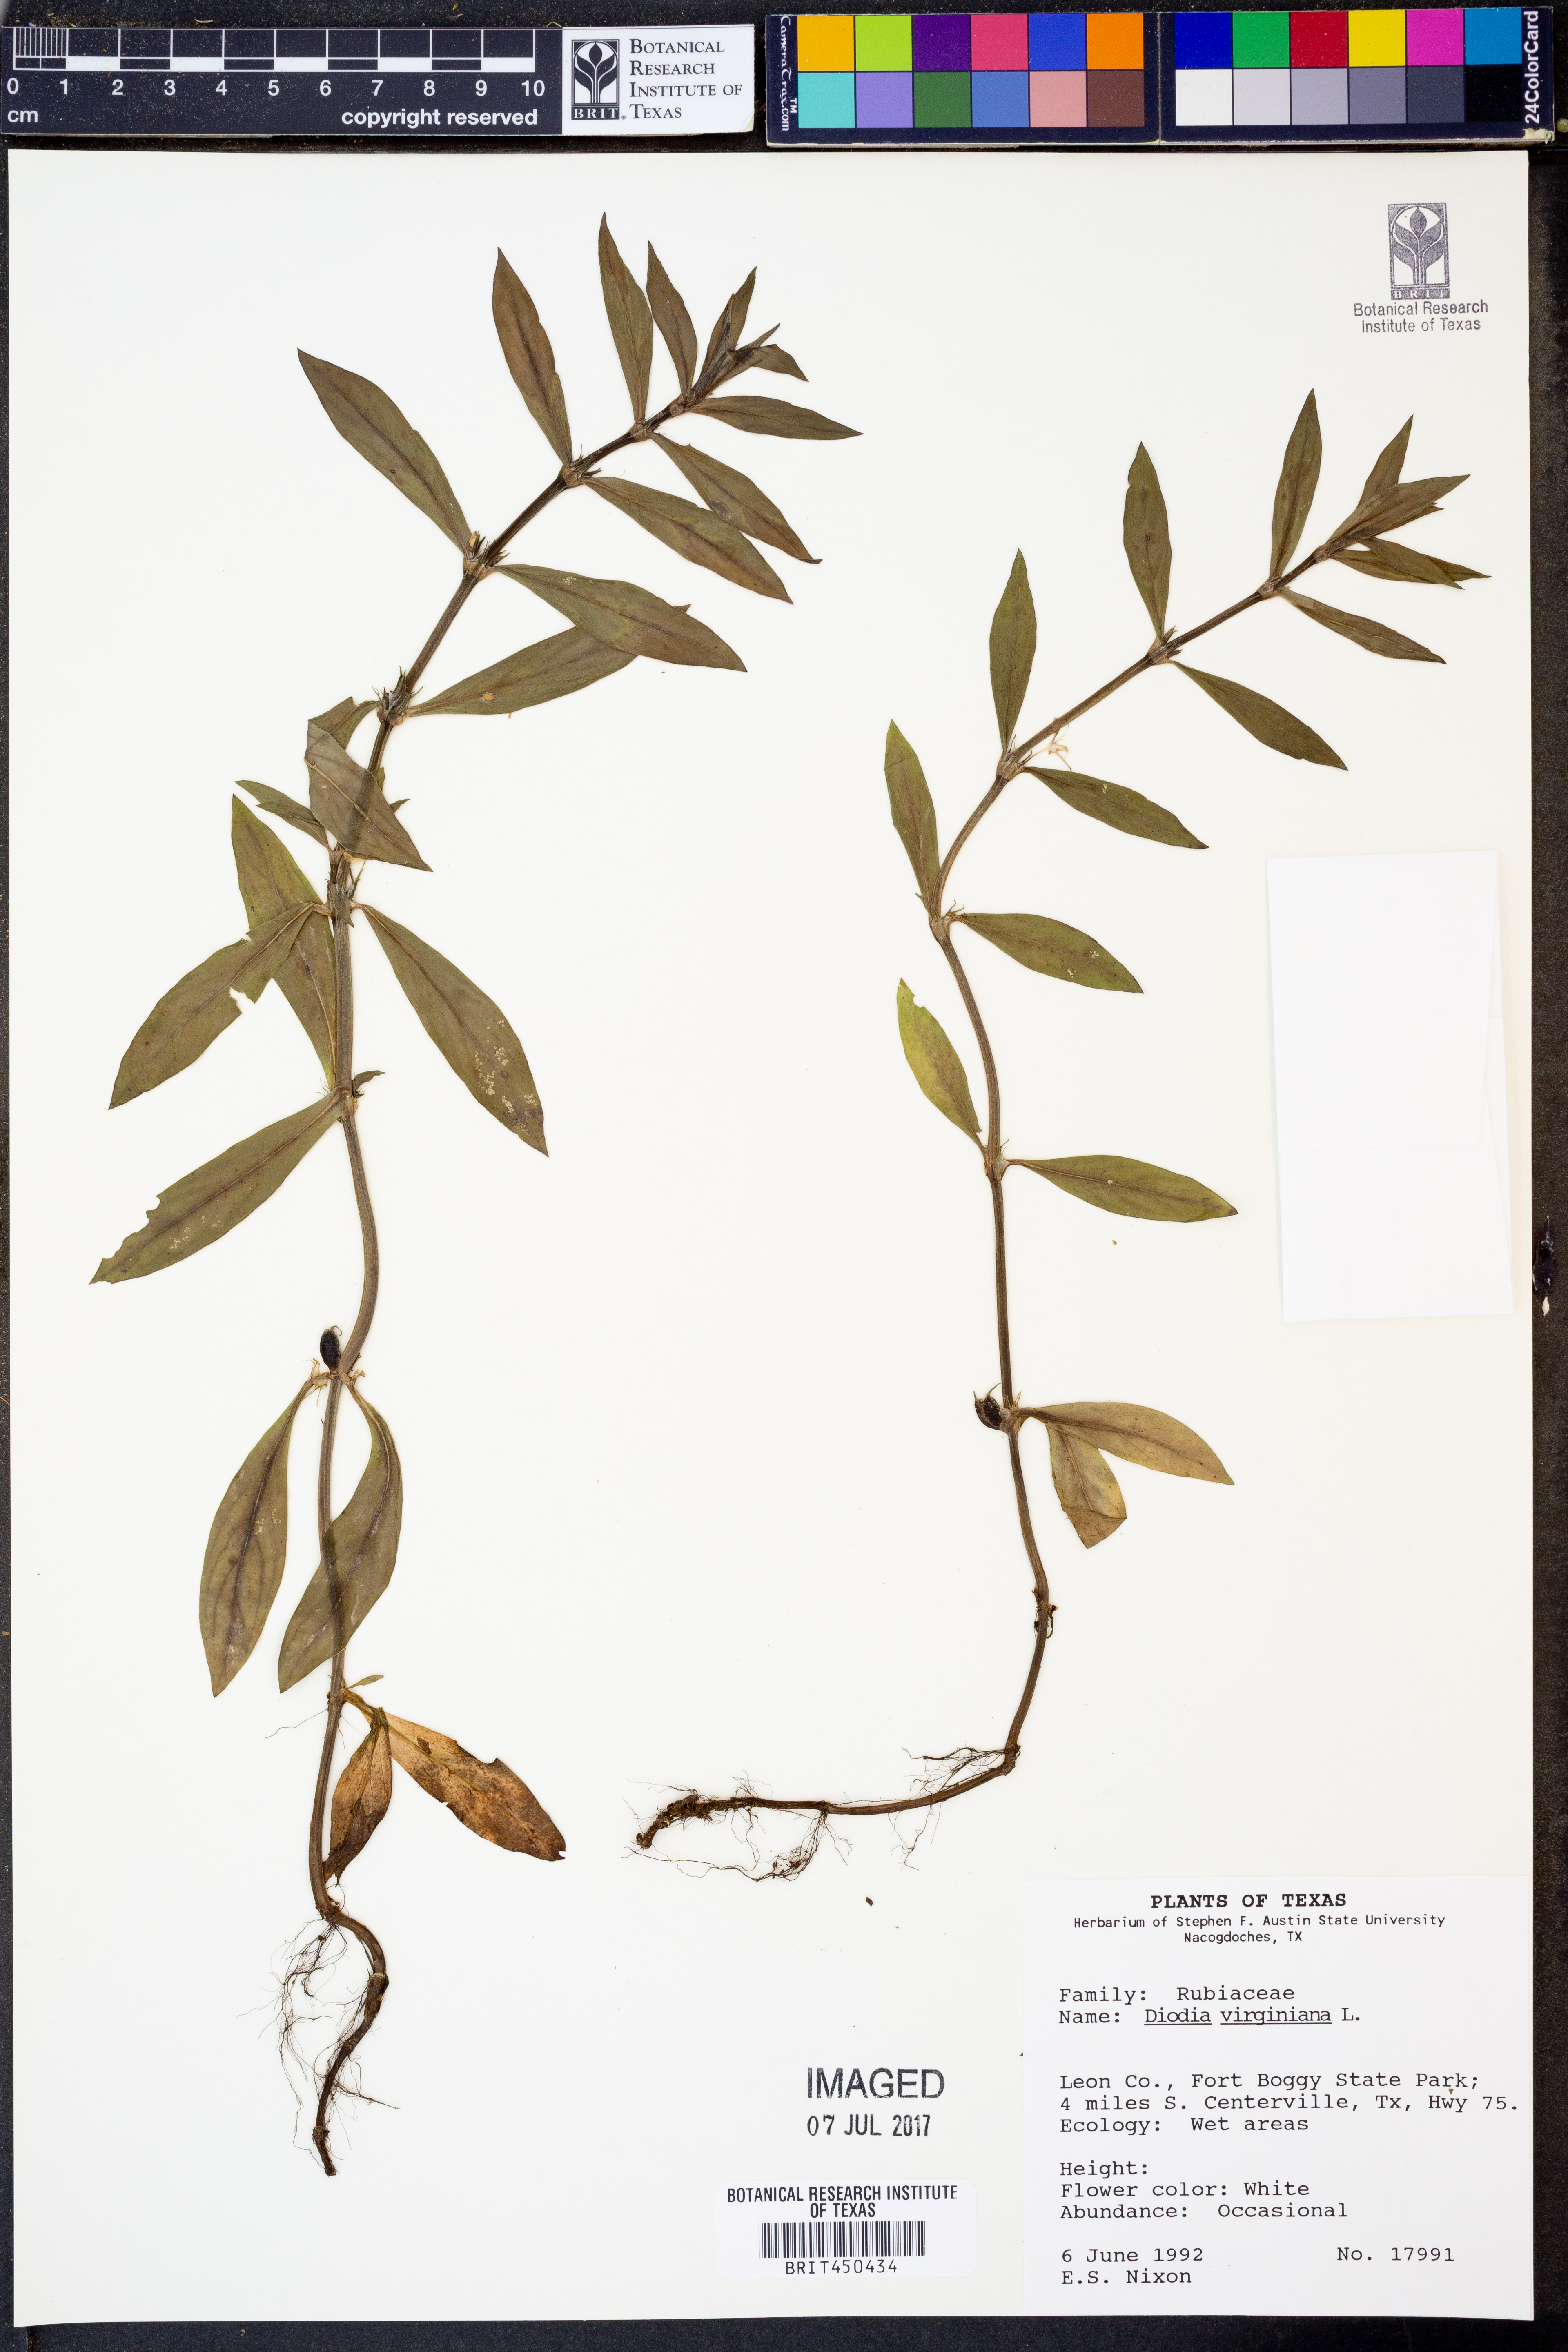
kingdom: Plantae
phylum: Tracheophyta
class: Magnoliopsida
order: Gentianales
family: Rubiaceae
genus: Diodia
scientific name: Diodia virginiana
